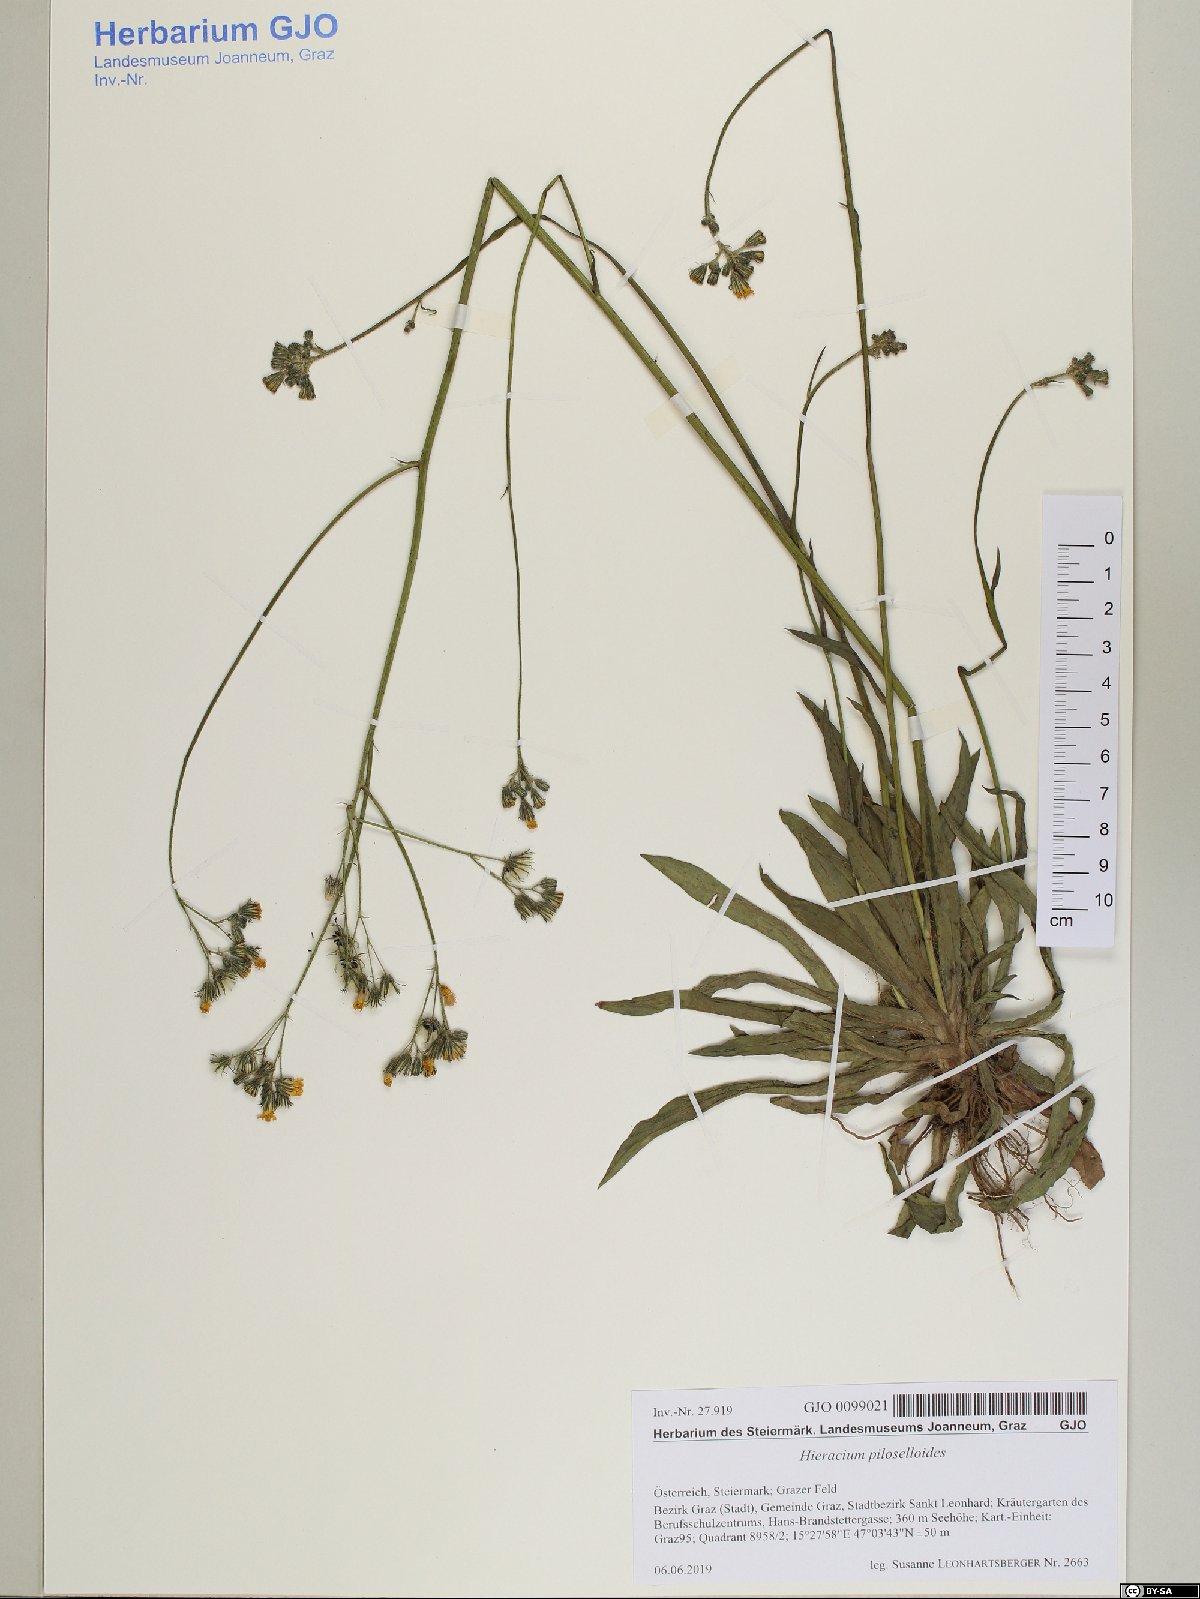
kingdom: Plantae
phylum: Tracheophyta
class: Magnoliopsida
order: Asterales
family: Asteraceae
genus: Pilosella
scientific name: Pilosella piloselloides
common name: Glaucous king-devil
